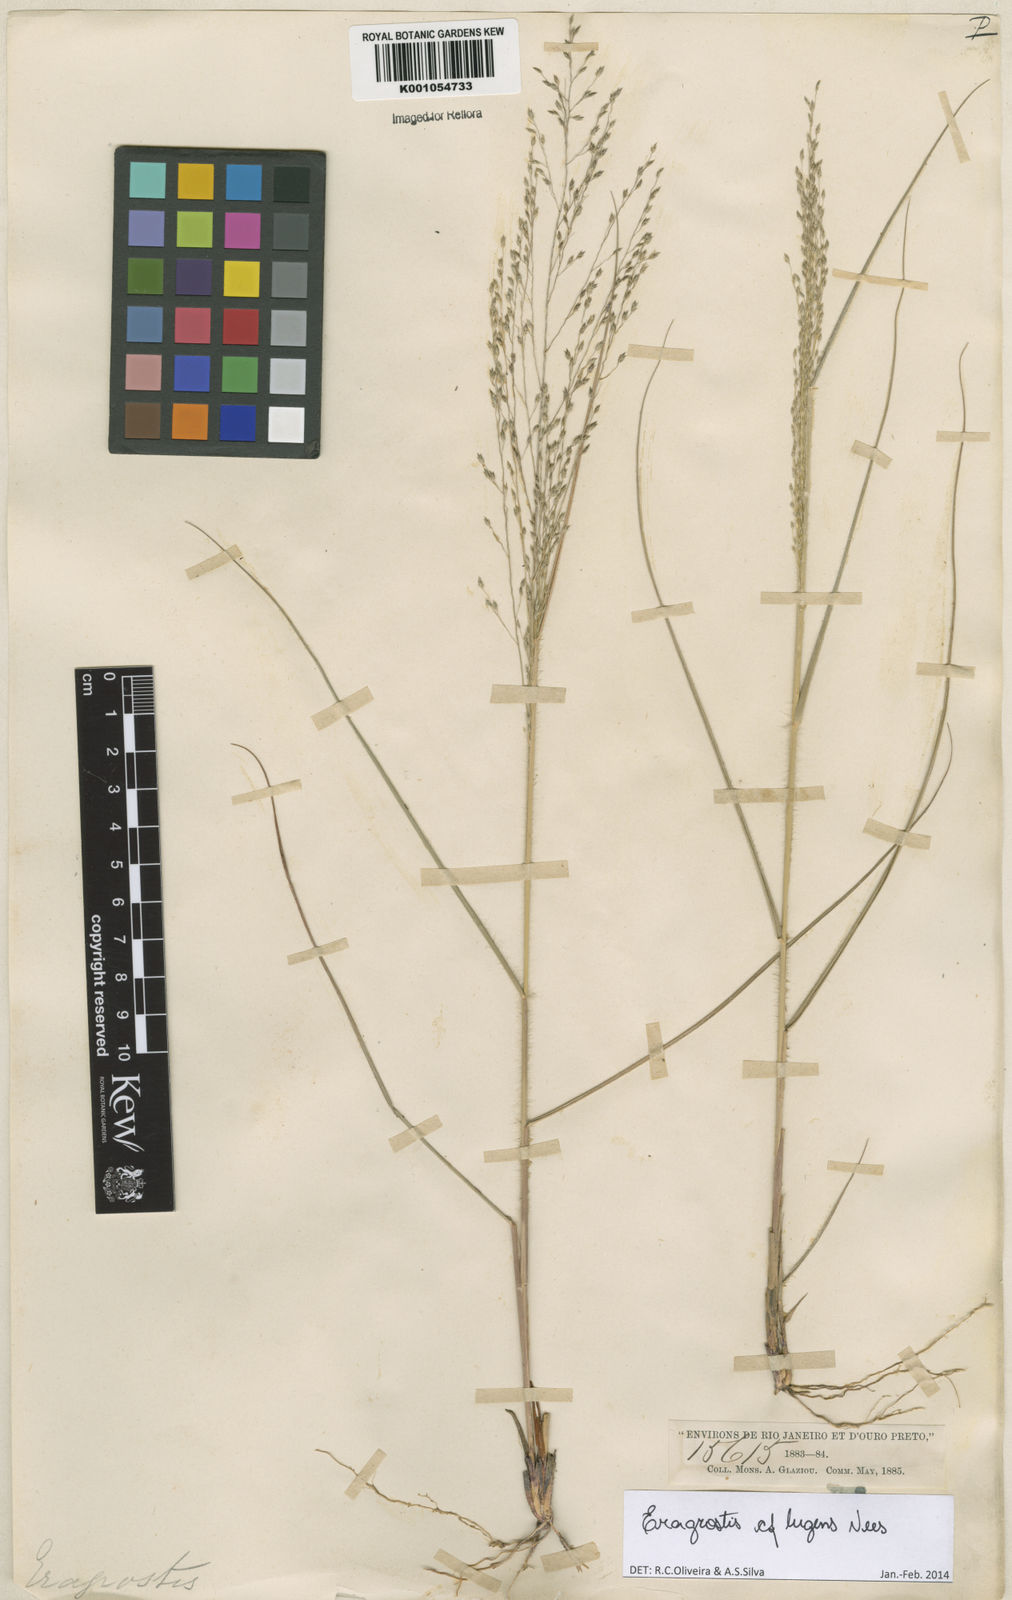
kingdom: Plantae
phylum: Tracheophyta
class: Liliopsida
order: Poales
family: Poaceae
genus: Eragrostis
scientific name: Eragrostis lugens
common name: Mourning love grass
